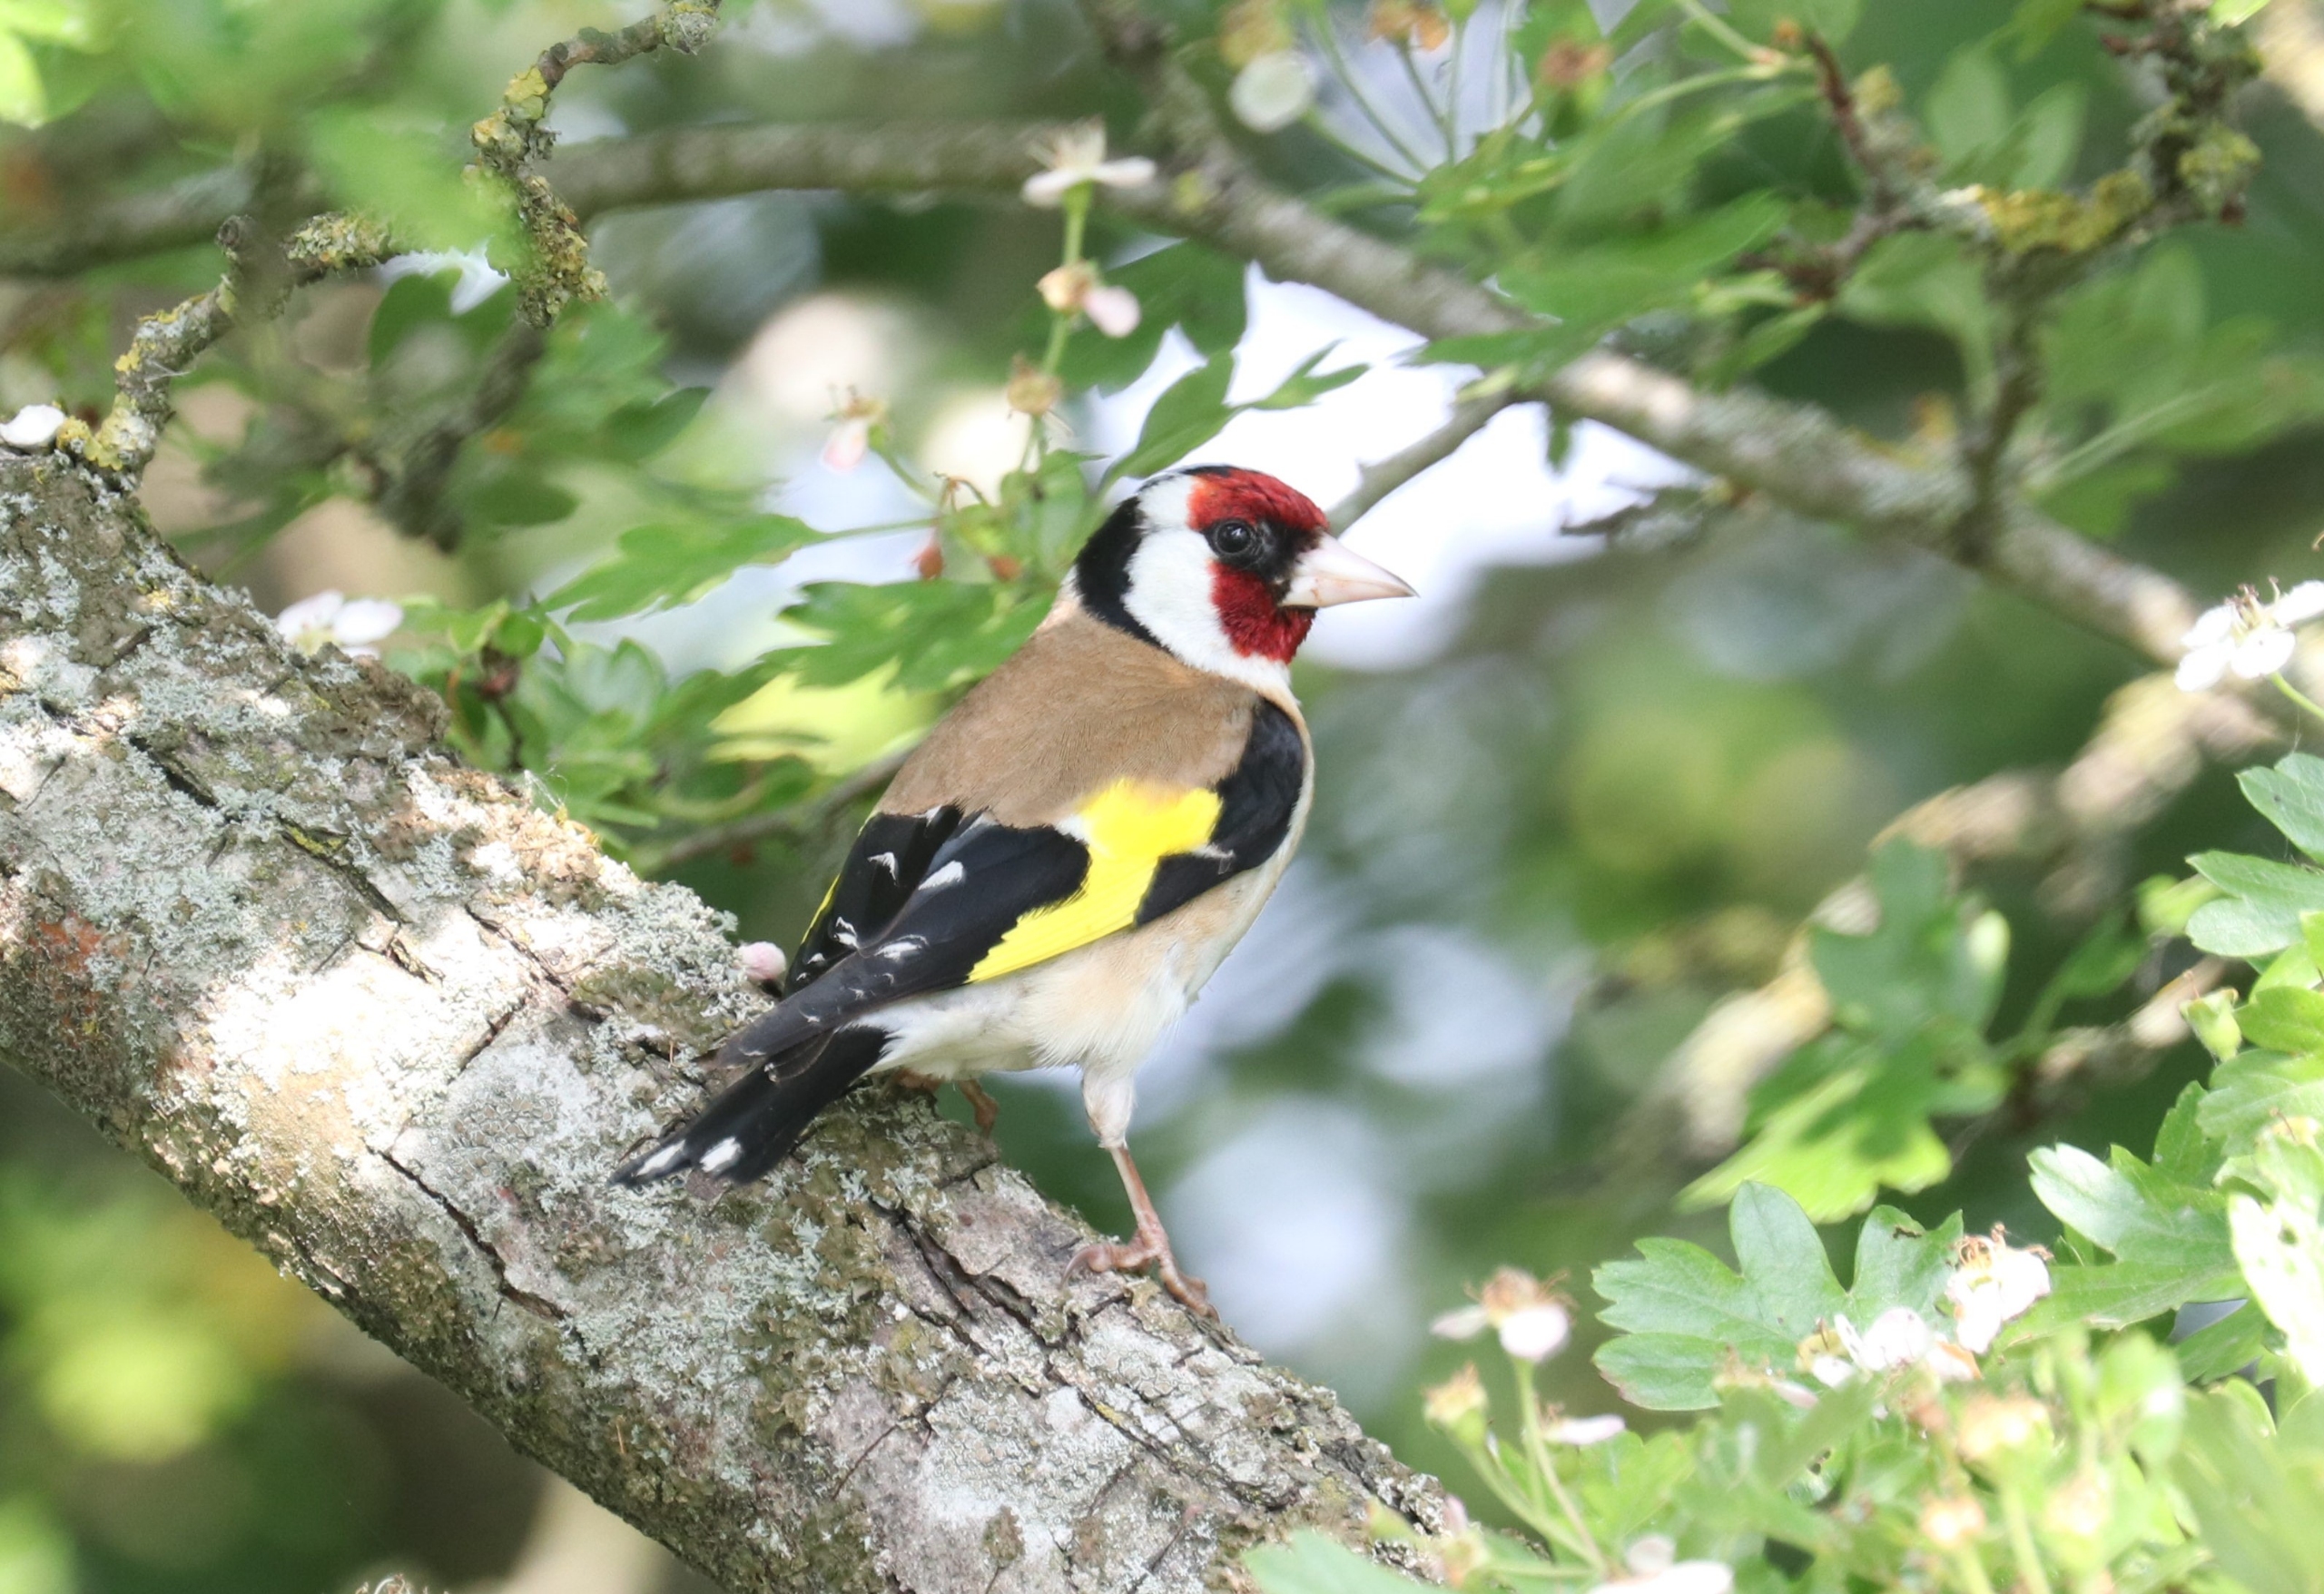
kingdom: Animalia
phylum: Chordata
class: Aves
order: Passeriformes
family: Fringillidae
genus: Carduelis
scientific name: Carduelis carduelis
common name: Stillits
